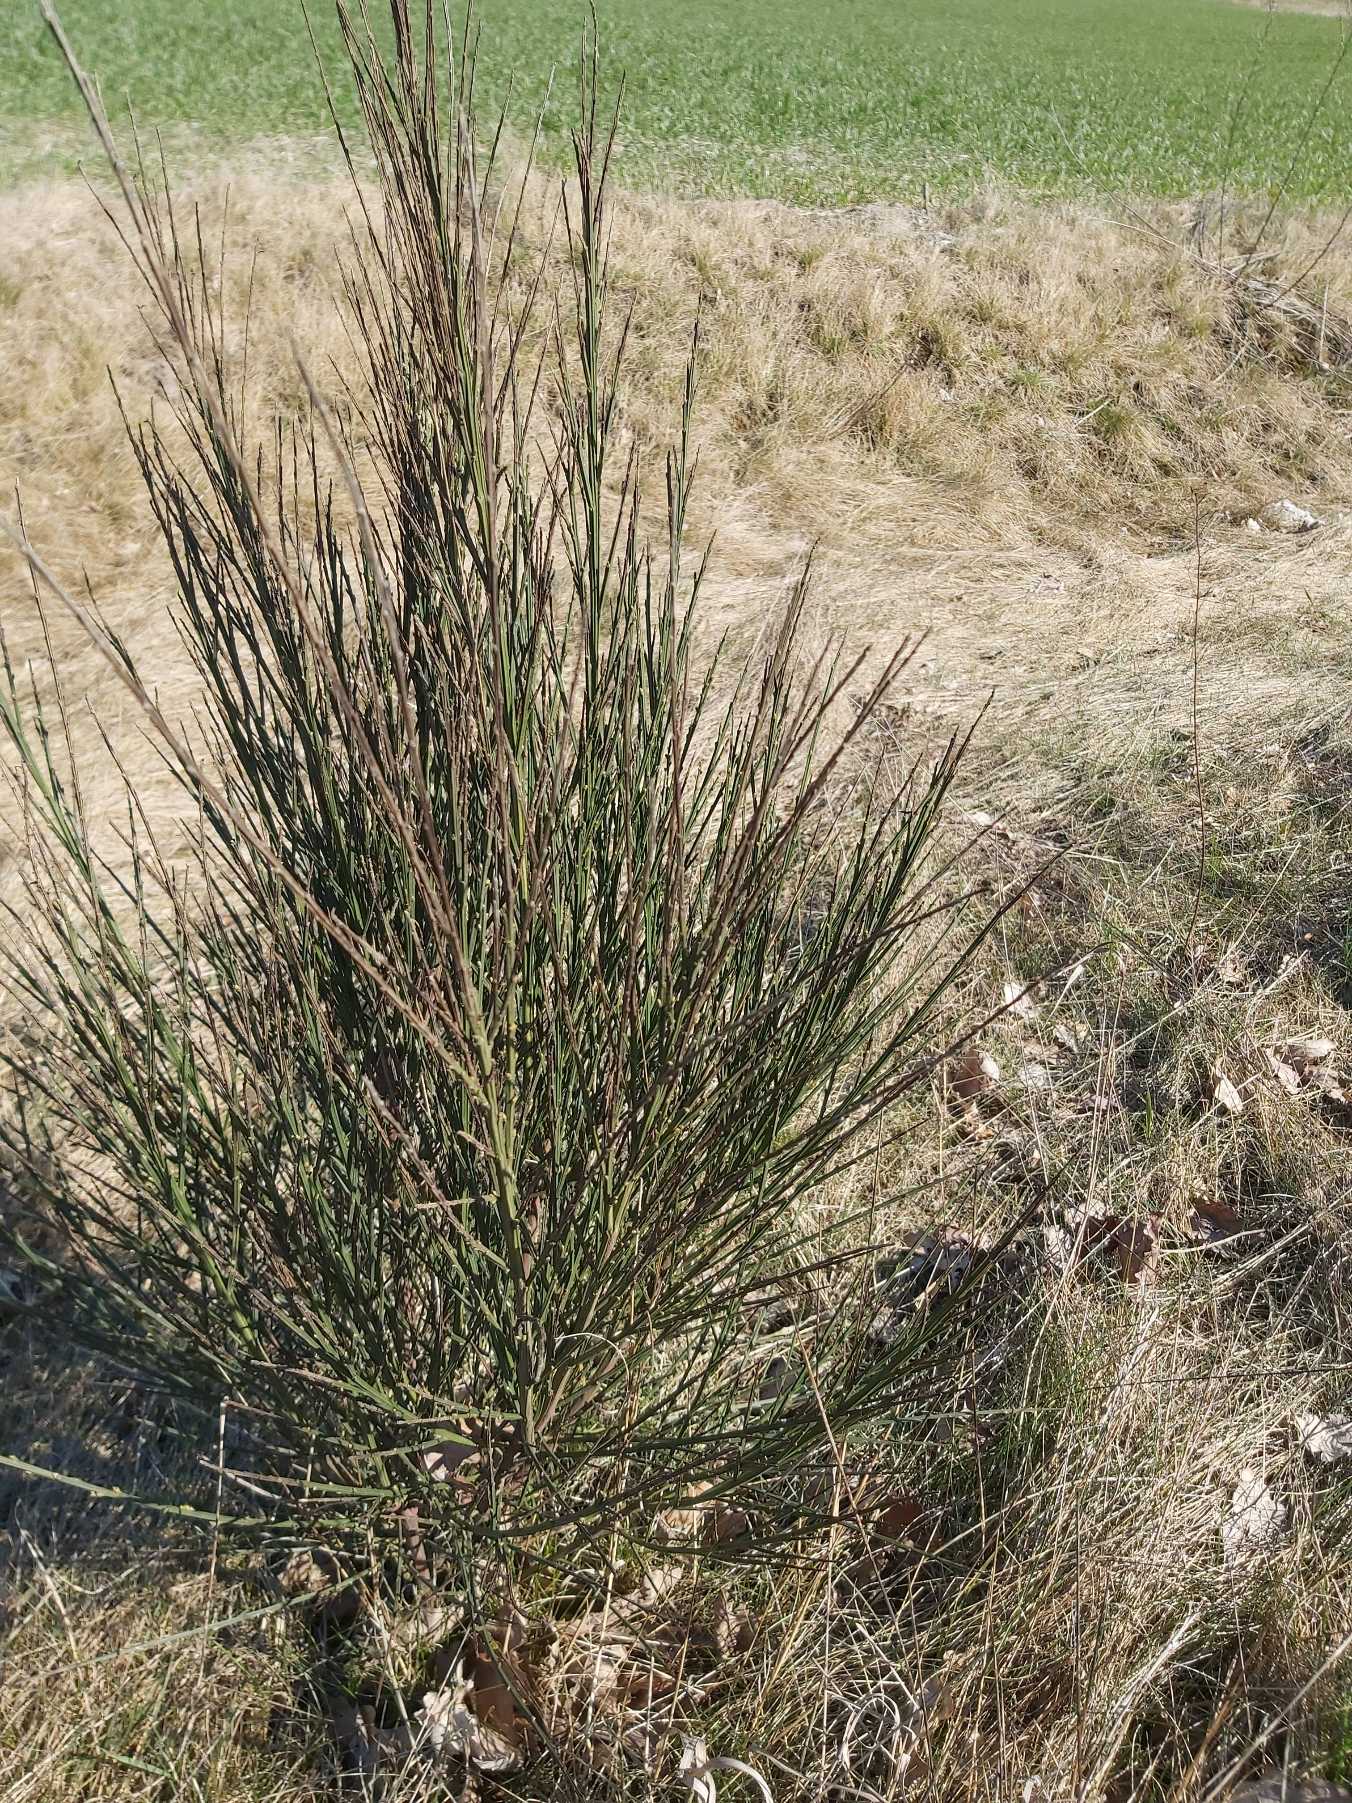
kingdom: Plantae
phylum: Tracheophyta
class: Magnoliopsida
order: Fabales
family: Fabaceae
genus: Cytisus
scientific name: Cytisus scoparius
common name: Almindelig gyvel
